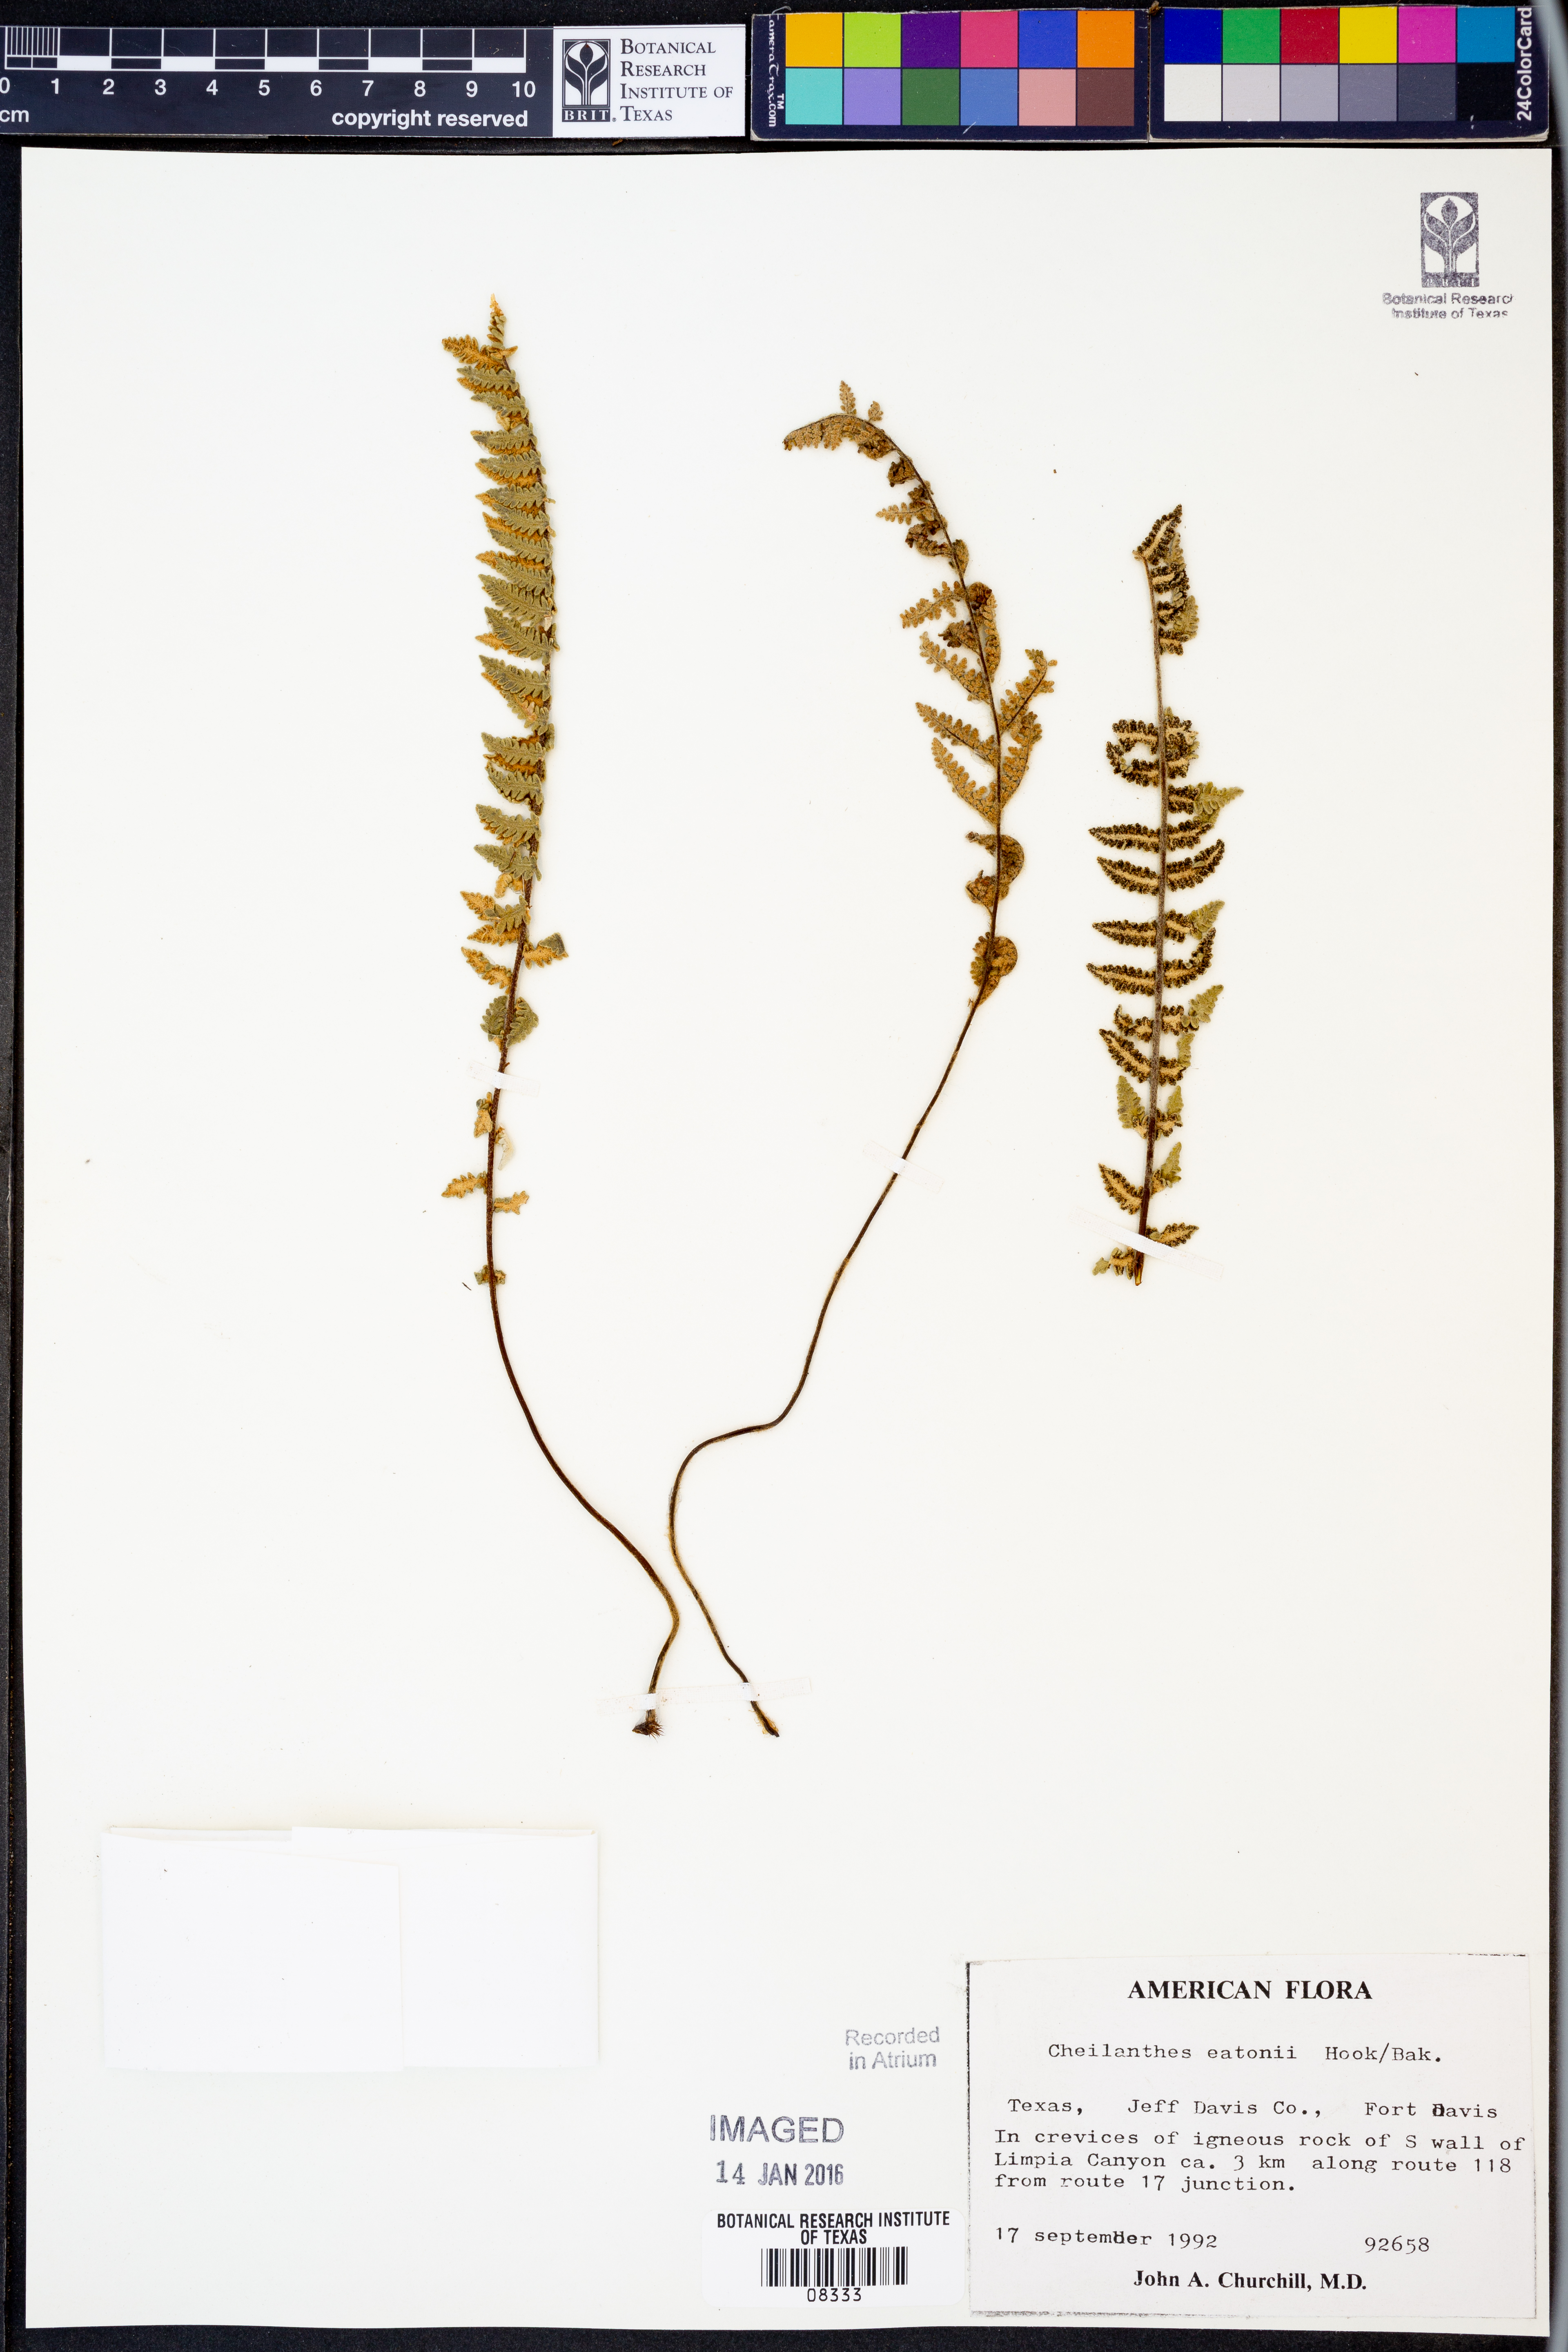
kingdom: Plantae
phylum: Tracheophyta
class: Polypodiopsida
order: Polypodiales
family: Pteridaceae
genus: Myriopteris
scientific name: Myriopteris rufa
